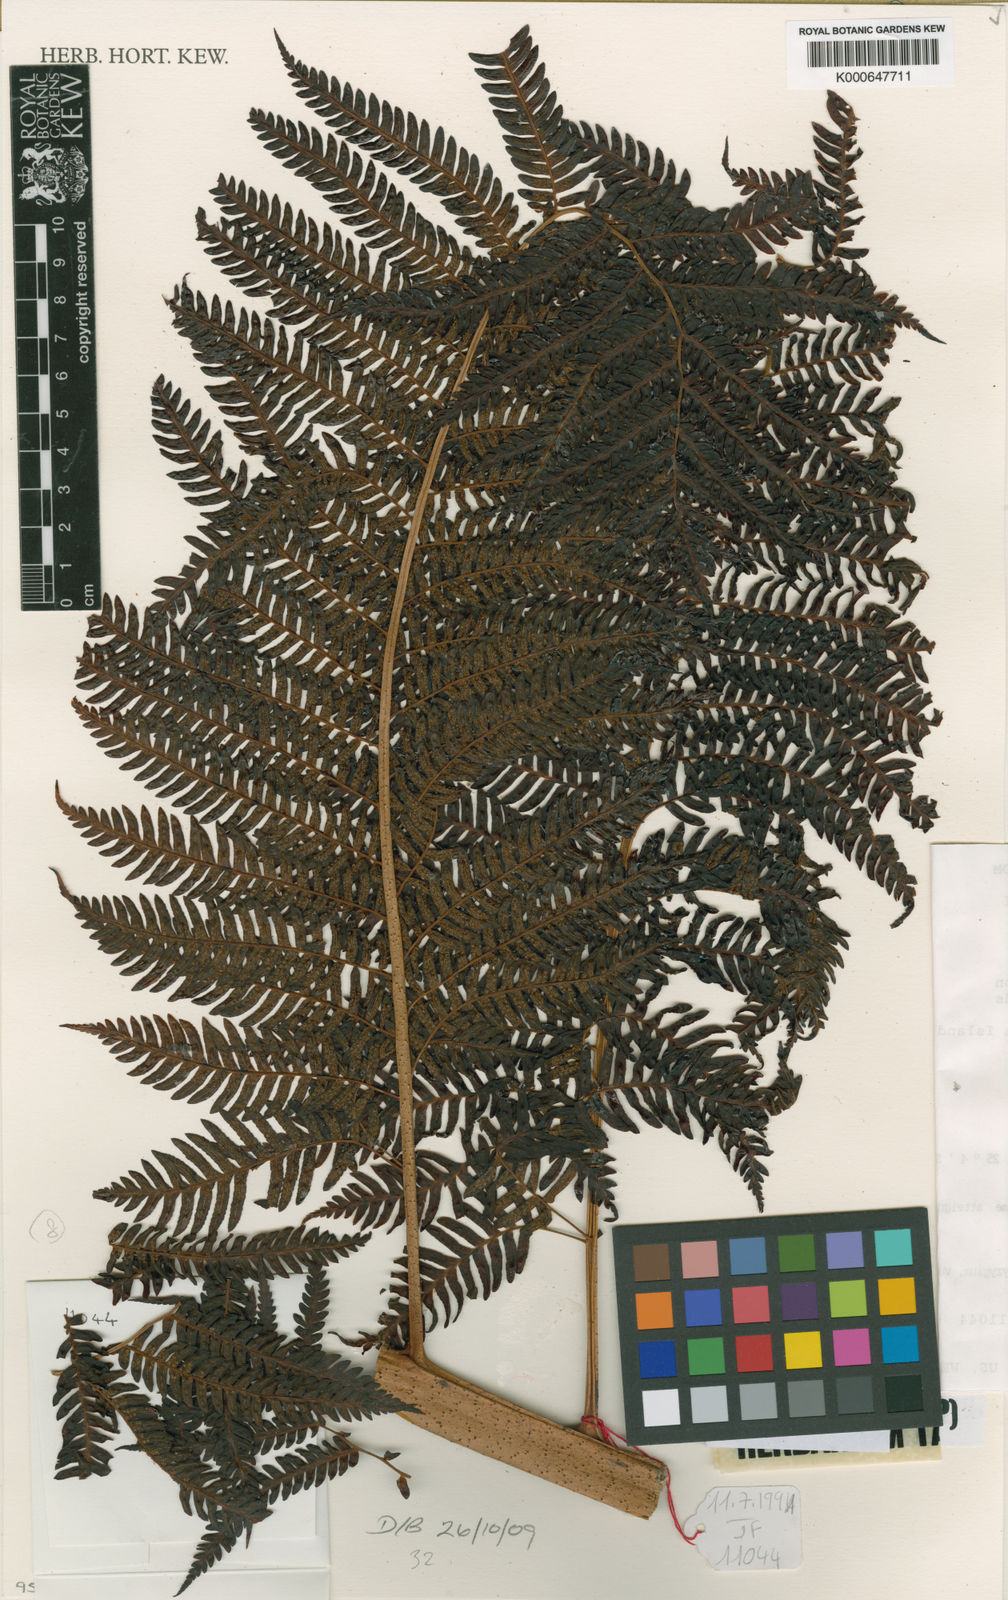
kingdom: Plantae
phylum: Tracheophyta
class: Polypodiopsida
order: Cyatheales
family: Cyatheaceae
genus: Sphaeropteris
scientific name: Sphaeropteris medullaris
